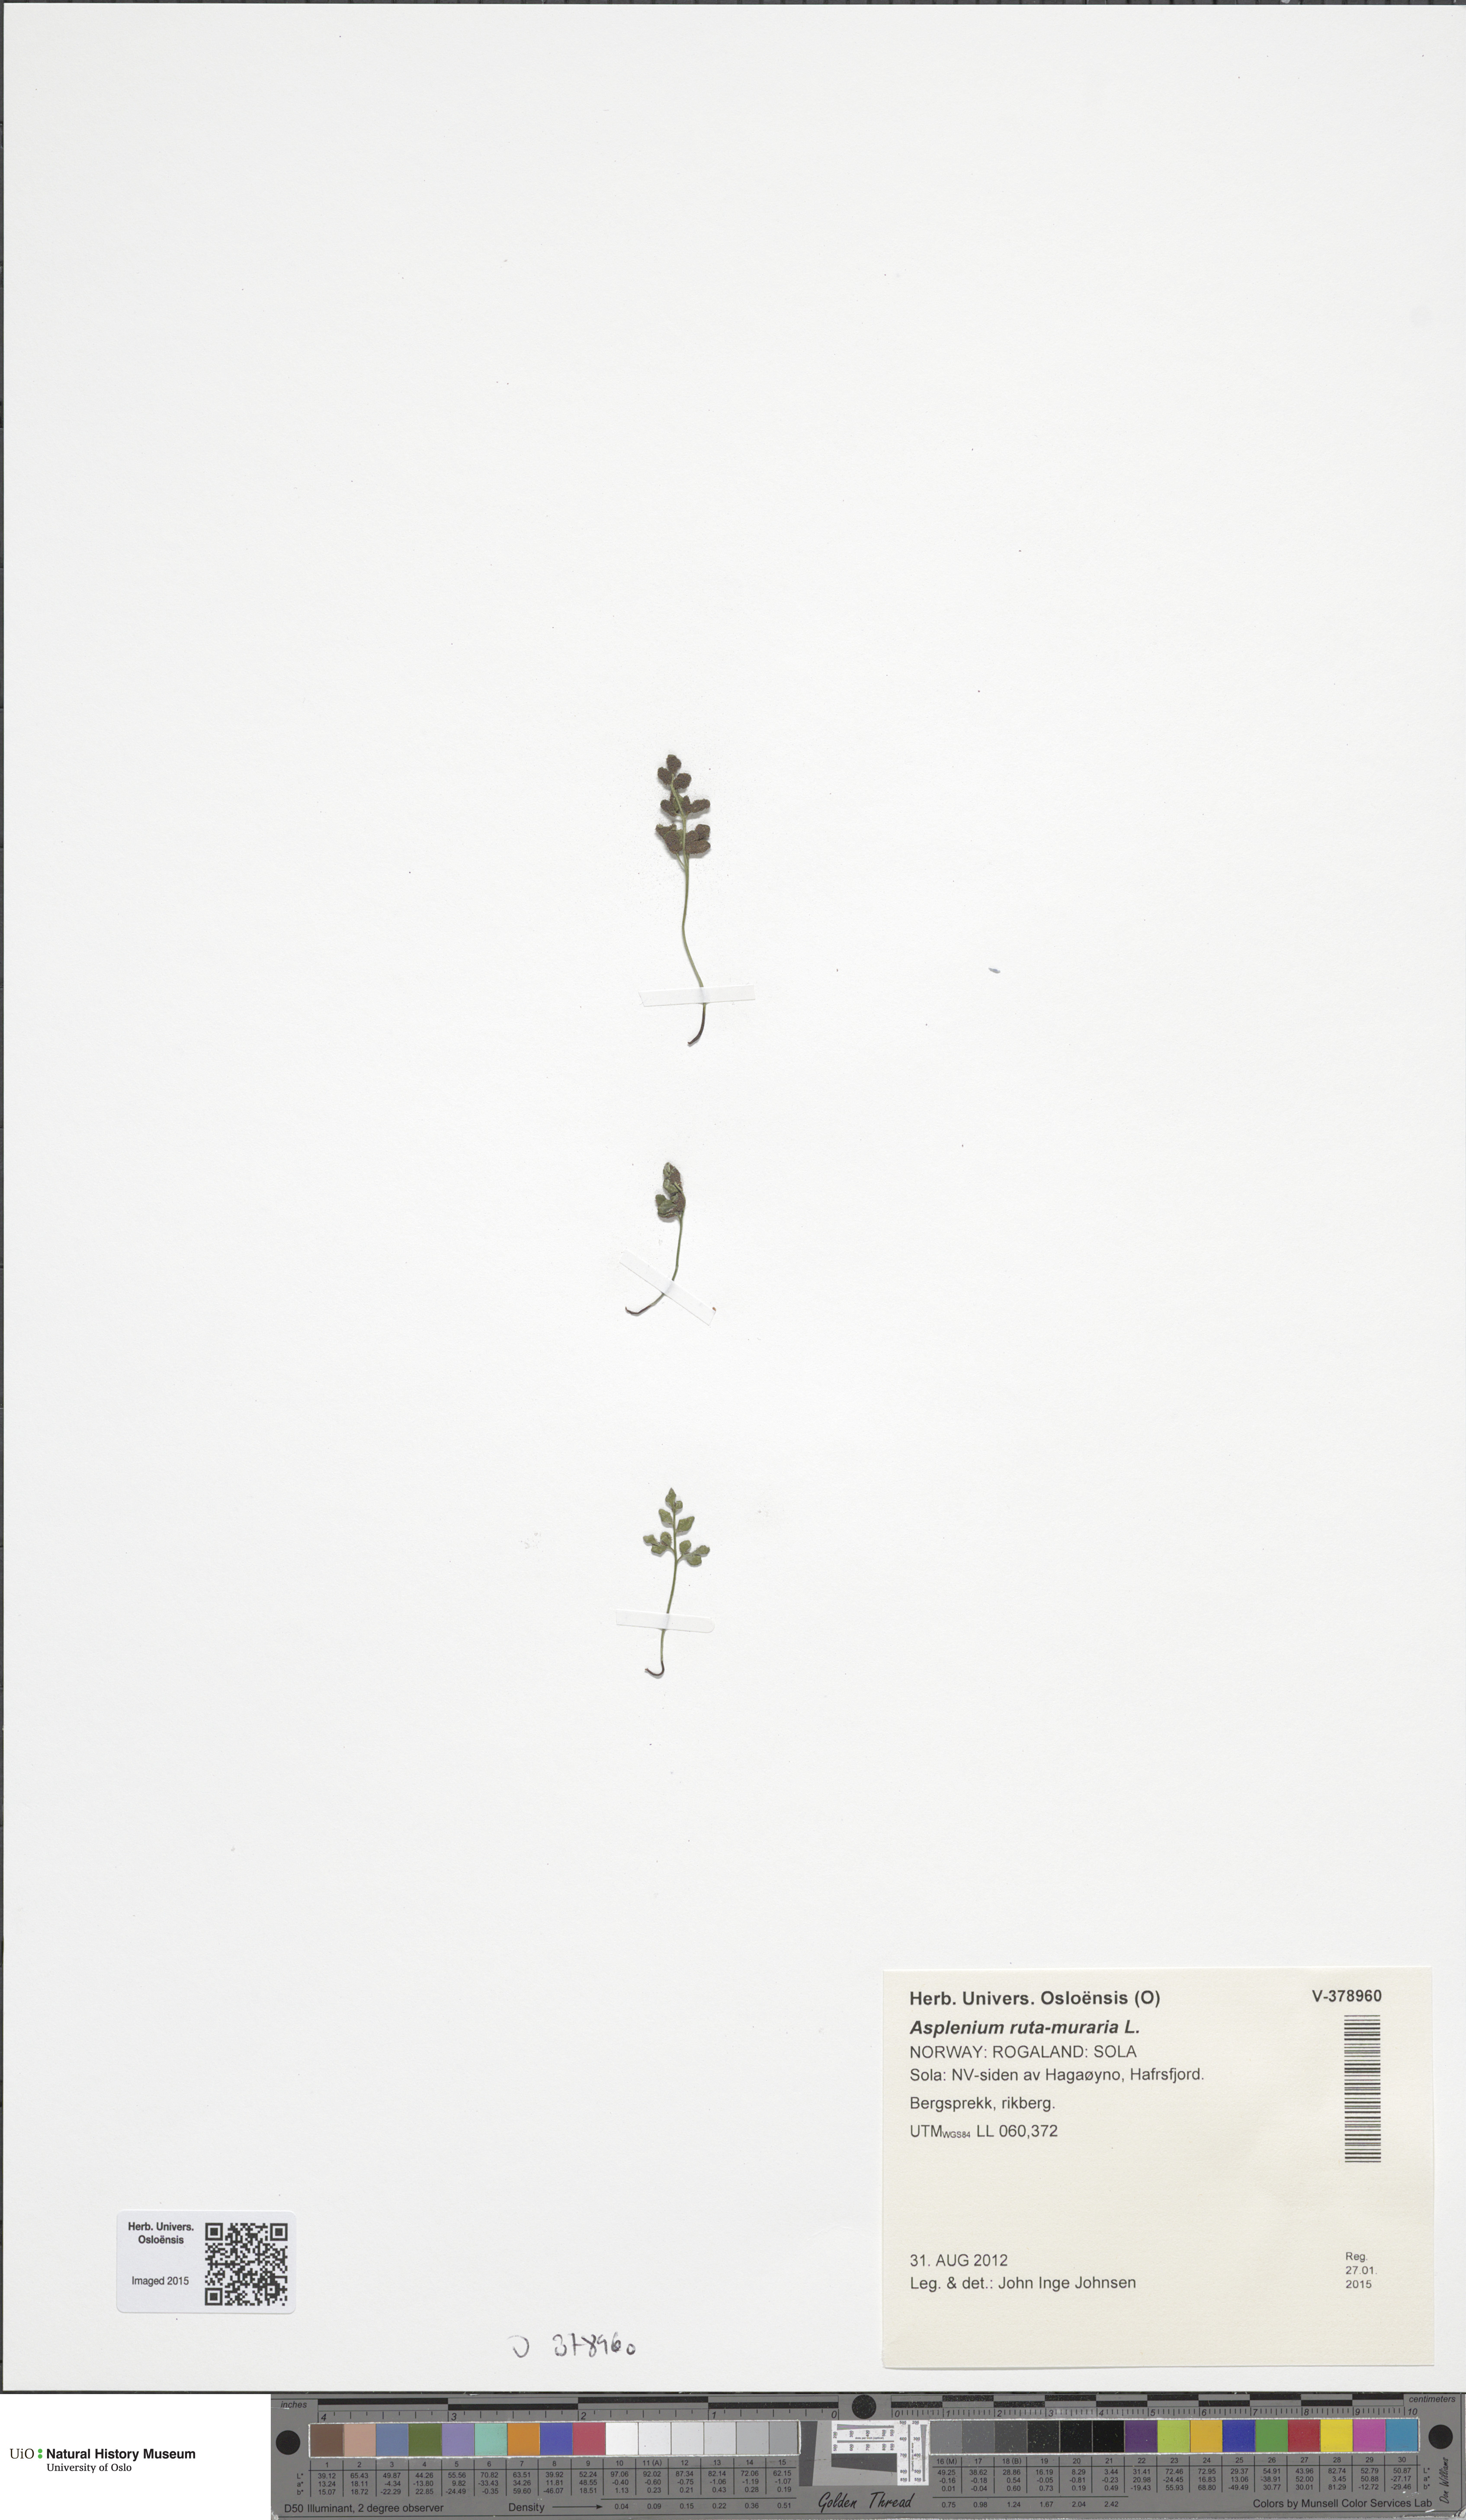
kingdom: Plantae
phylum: Tracheophyta
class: Polypodiopsida
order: Polypodiales
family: Aspleniaceae
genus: Asplenium
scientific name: Asplenium ruta-muraria
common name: Wall-rue
